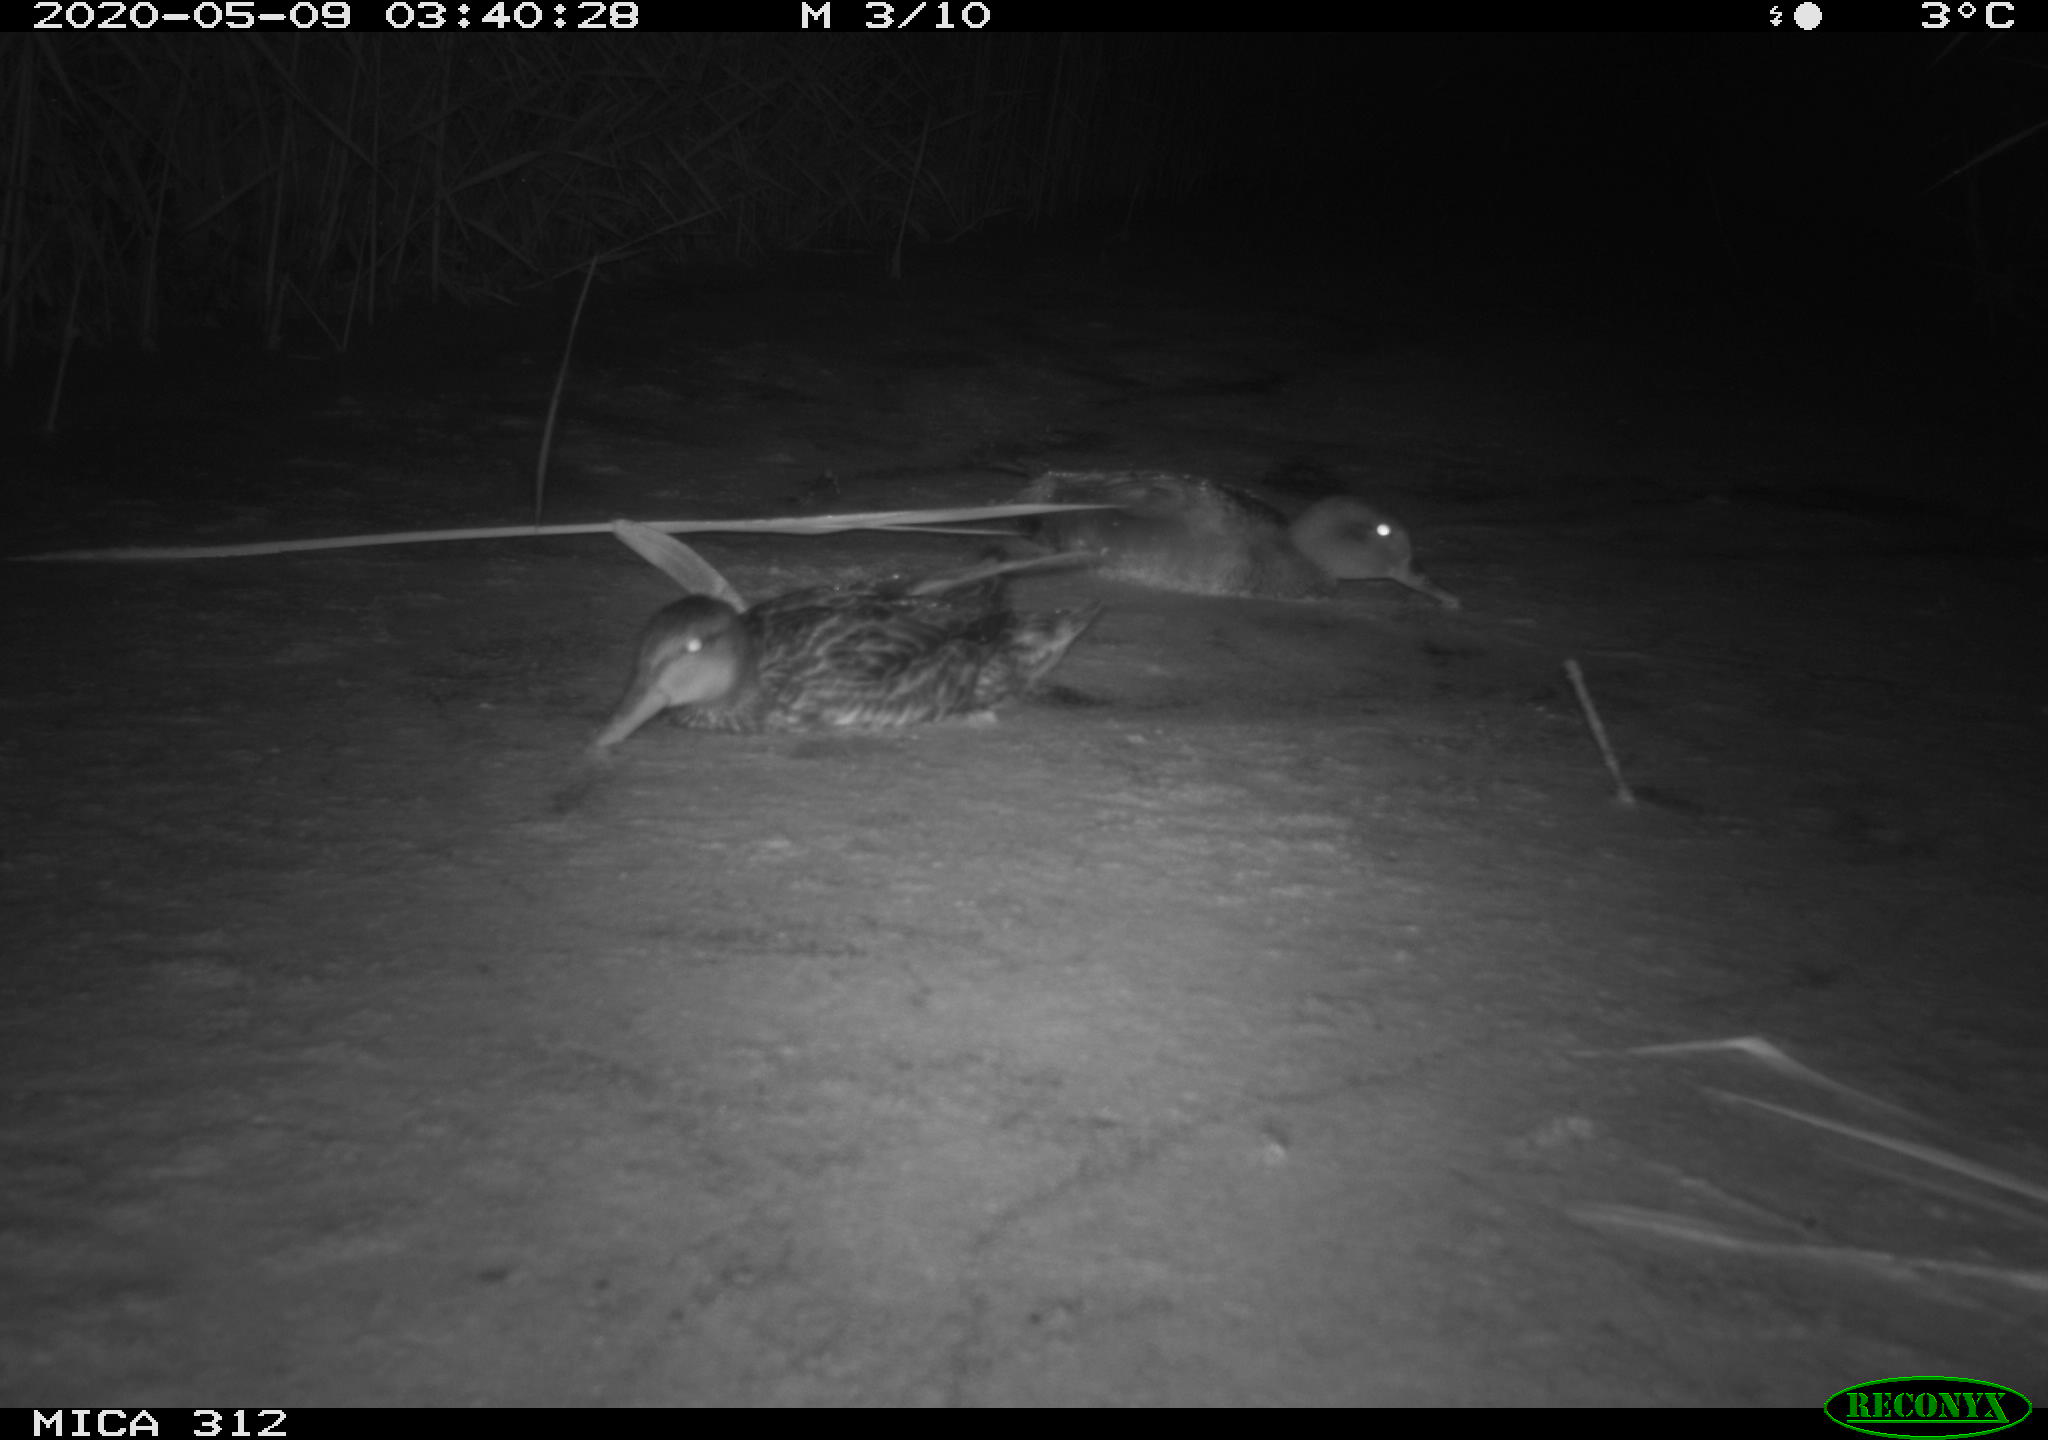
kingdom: Animalia
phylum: Chordata
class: Aves
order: Anseriformes
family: Anatidae
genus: Anas
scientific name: Anas platyrhynchos
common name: Mallard
